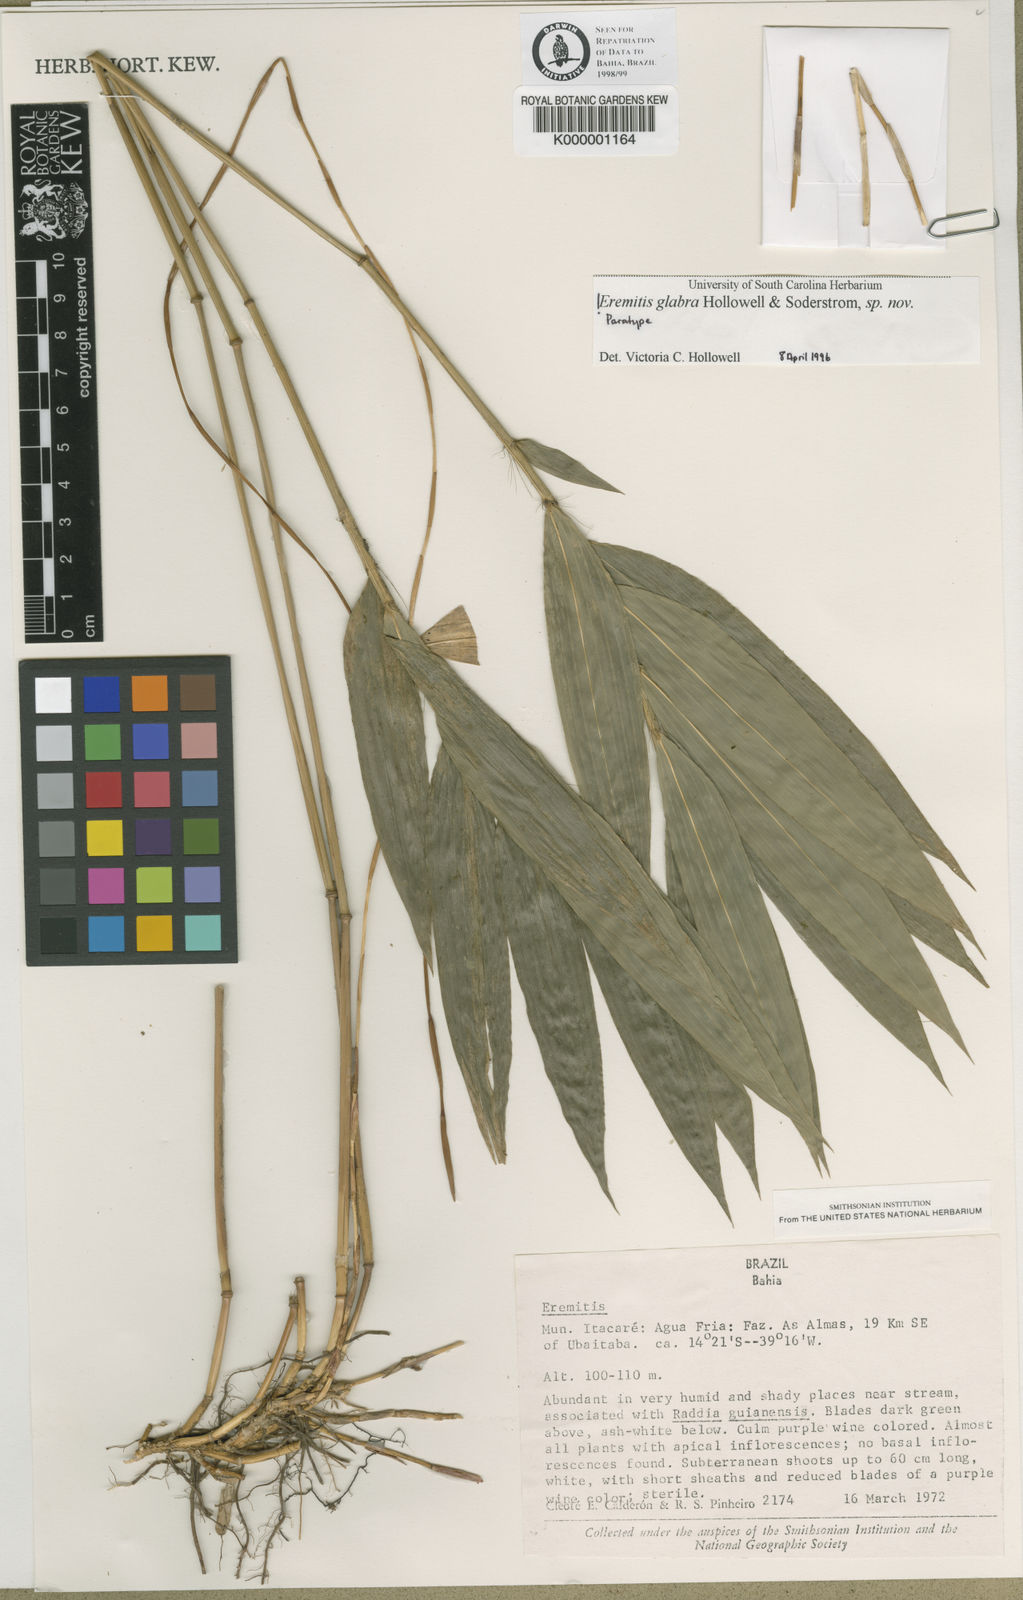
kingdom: Plantae
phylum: Tracheophyta
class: Liliopsida
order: Poales
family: Poaceae
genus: Eremitis
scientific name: Eremitis
